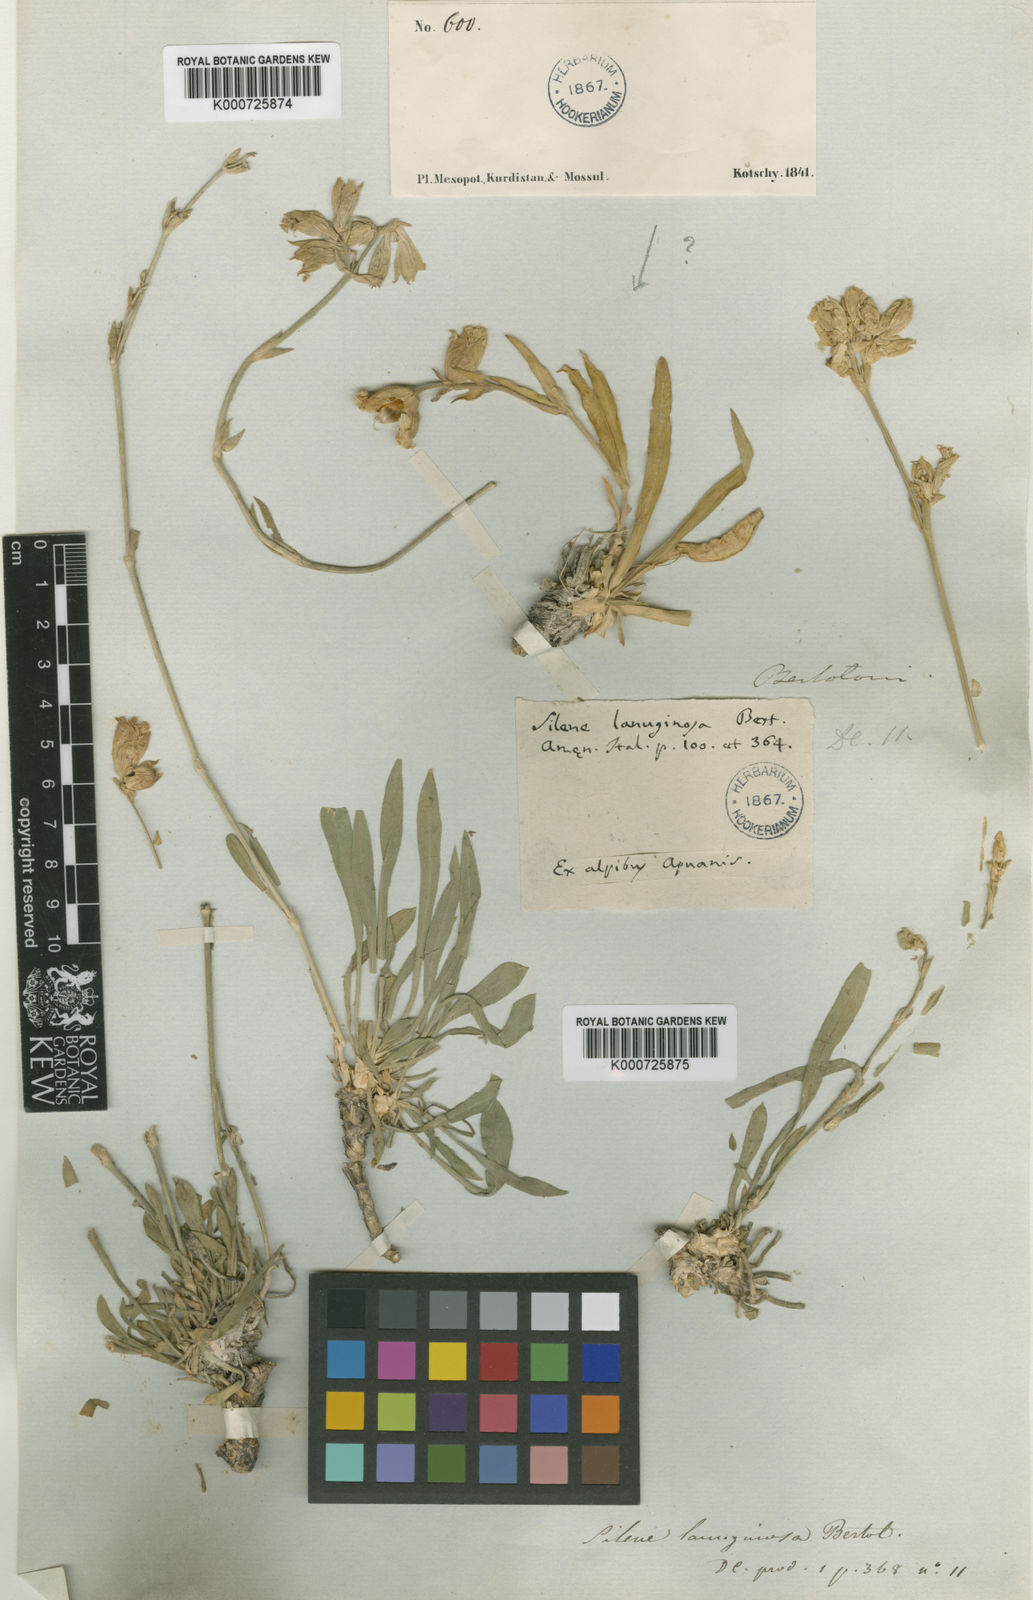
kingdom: Plantae
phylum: Tracheophyta
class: Magnoliopsida
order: Caryophyllales
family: Caryophyllaceae
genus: Silene
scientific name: Silene auriculata
